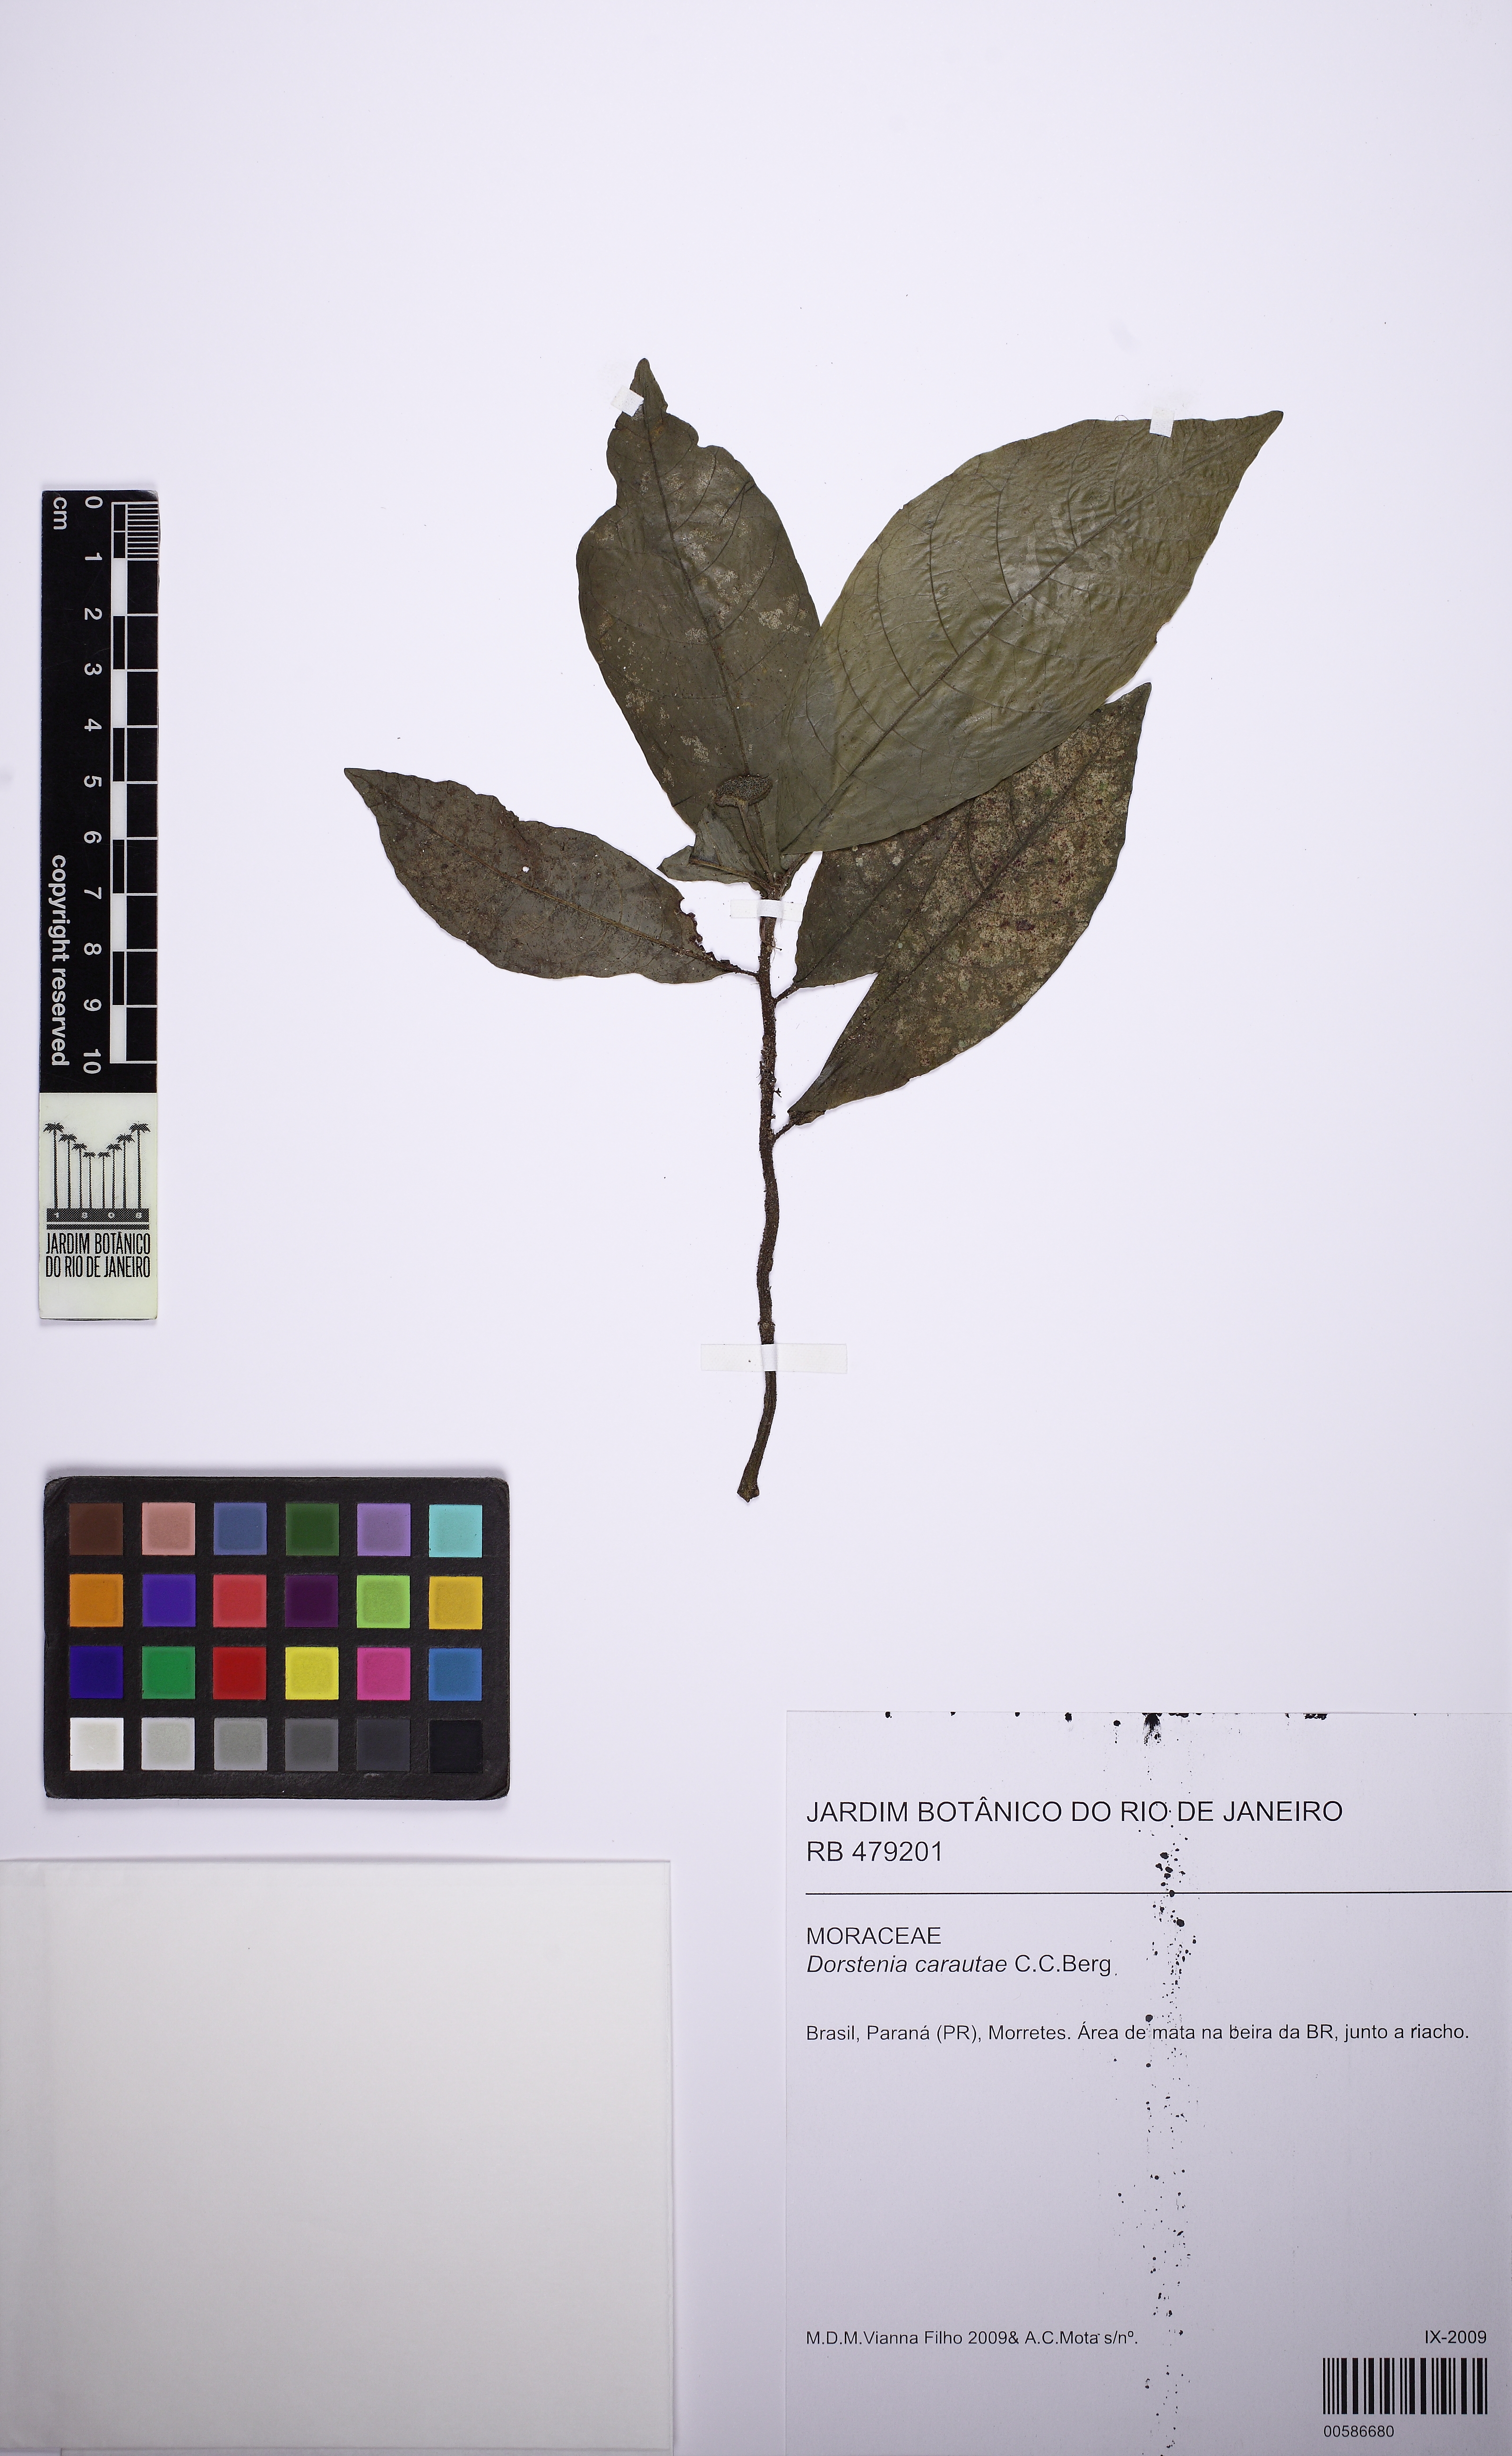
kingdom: Plantae
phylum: Tracheophyta
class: Magnoliopsida
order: Rosales
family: Moraceae
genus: Dorstenia
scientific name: Dorstenia carautae
